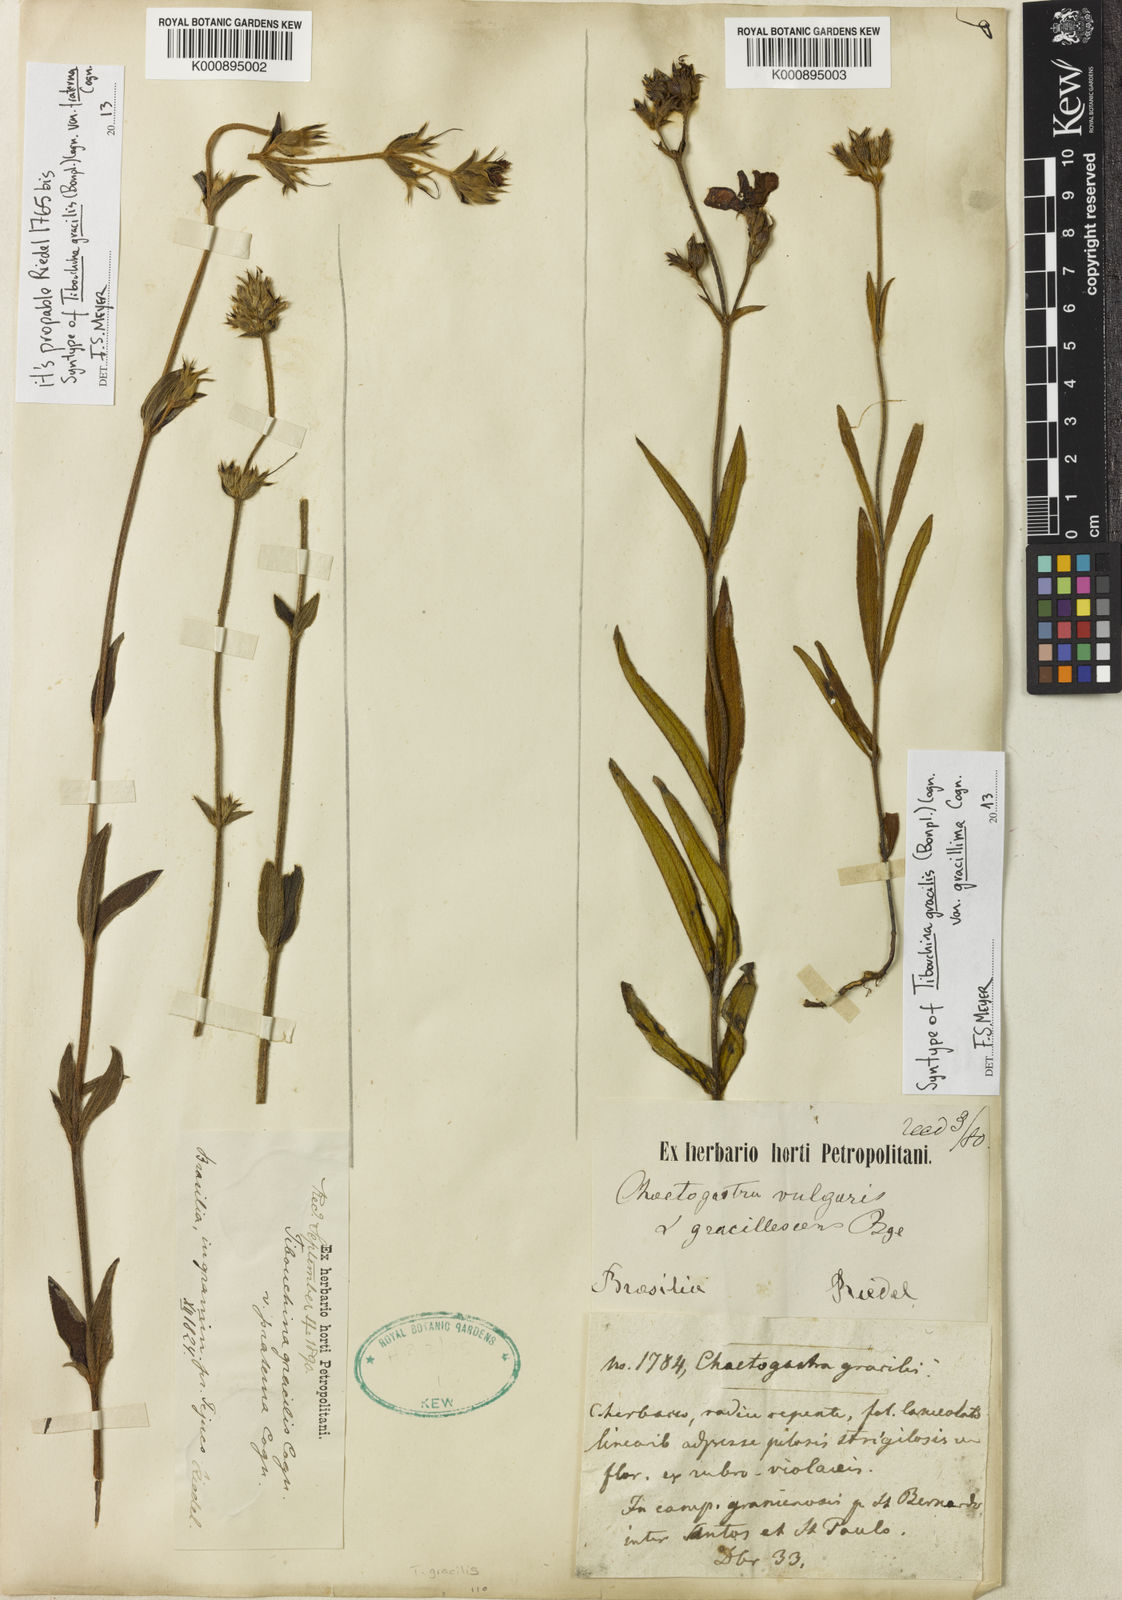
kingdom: Plantae
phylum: Tracheophyta
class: Magnoliopsida
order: Myrtales
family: Melastomataceae
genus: Chaetogastra
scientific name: Chaetogastra gracilis
